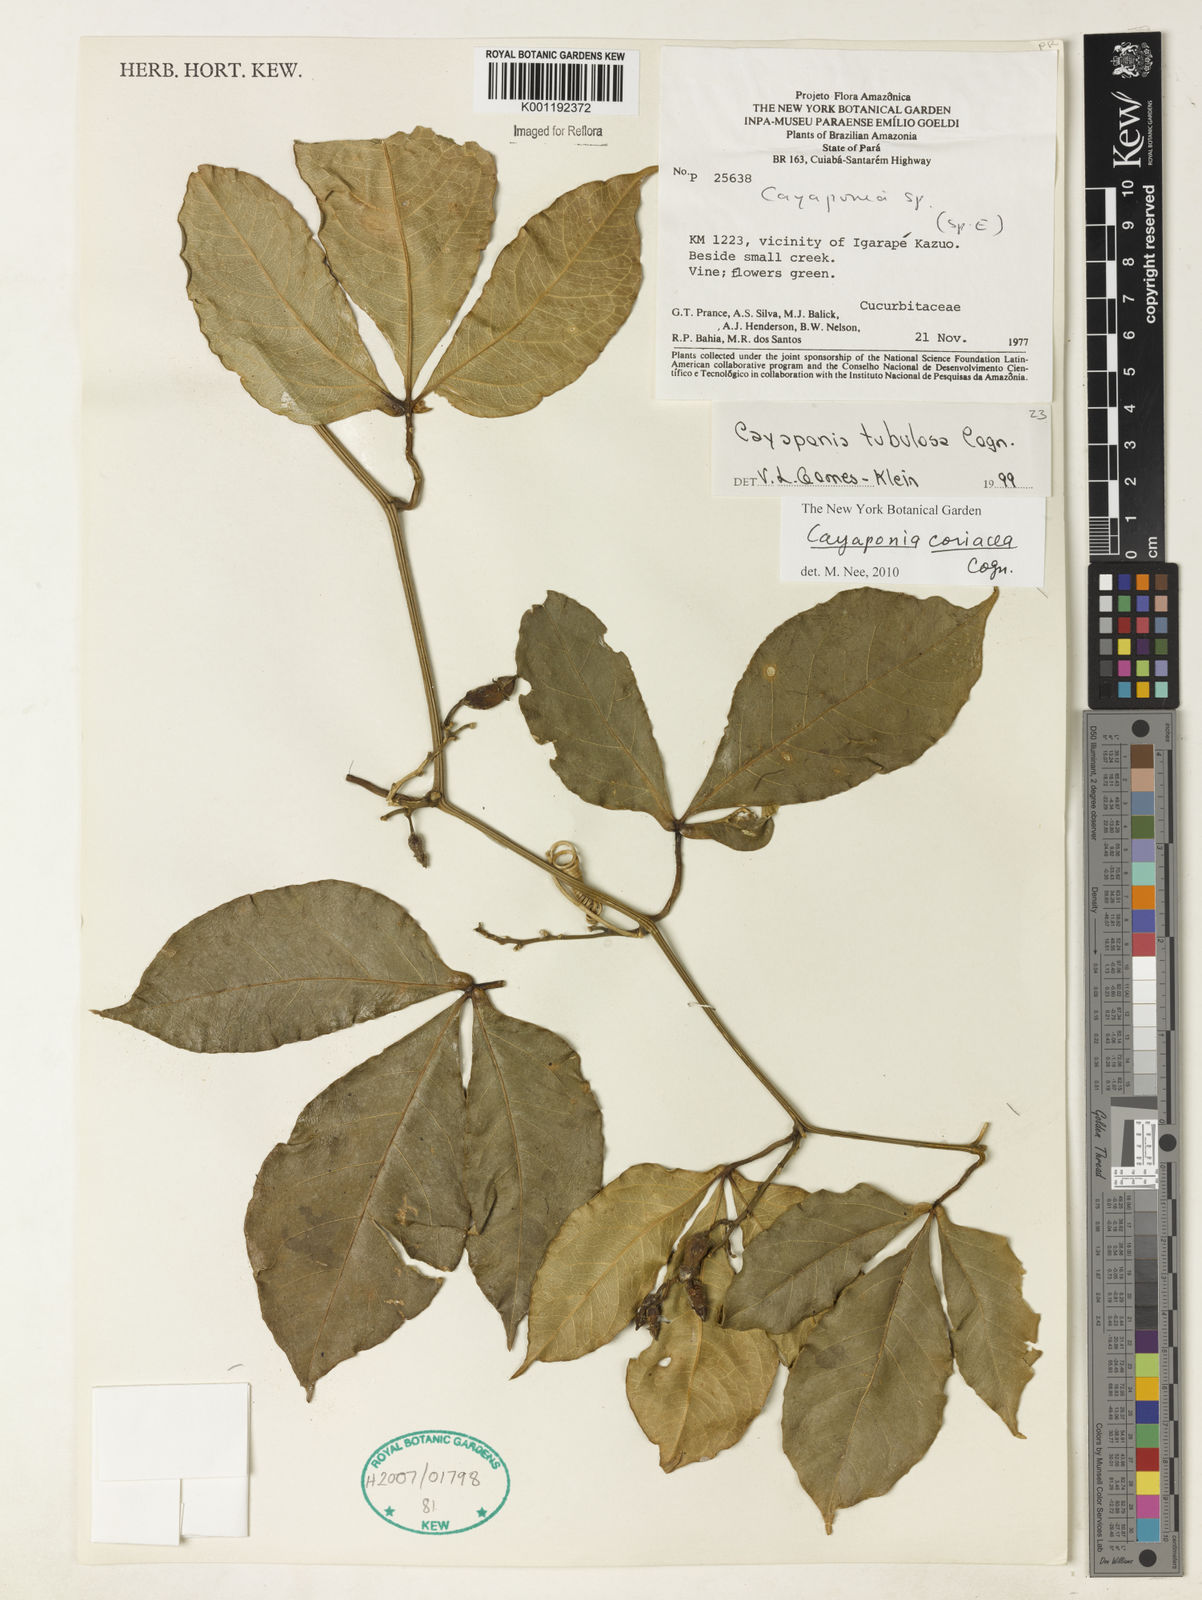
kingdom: Plantae
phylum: Tracheophyta
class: Magnoliopsida
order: Cucurbitales
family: Cucurbitaceae
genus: Cayaponia
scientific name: Cayaponia coriacea
